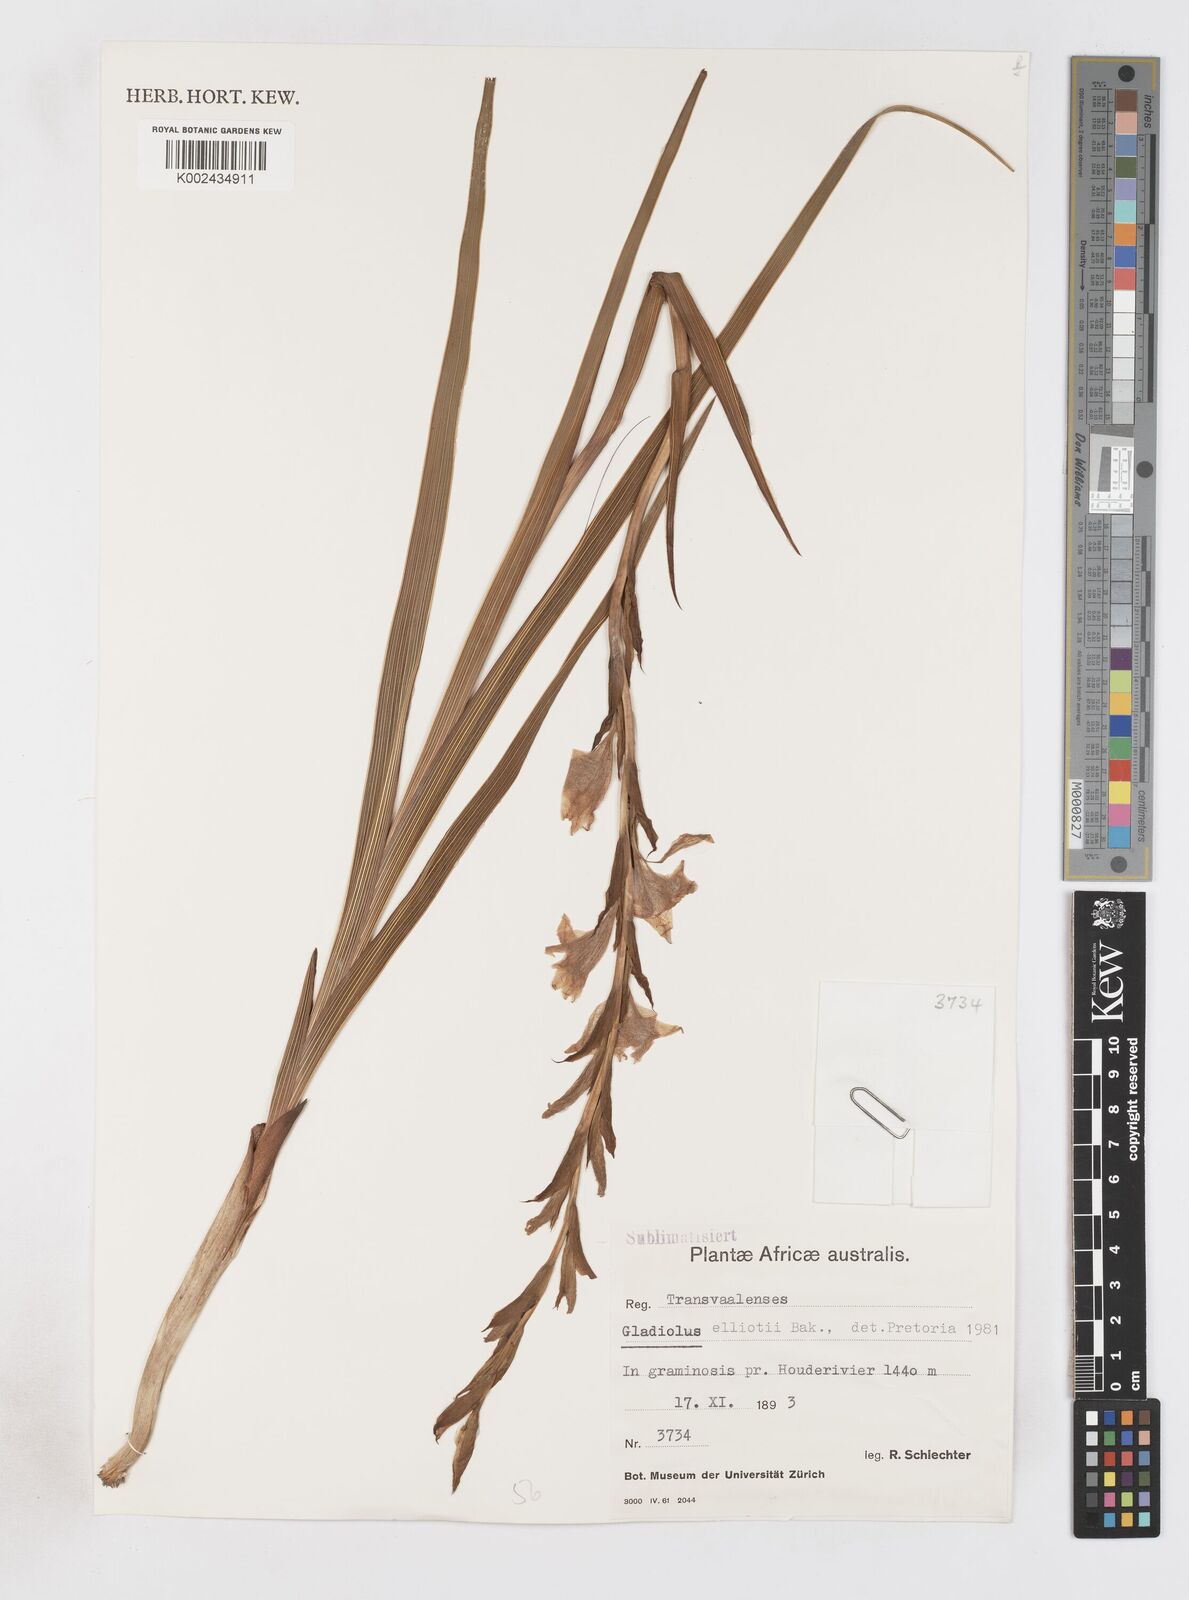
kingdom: Plantae
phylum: Tracheophyta
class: Liliopsida
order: Asparagales
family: Iridaceae
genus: Gladiolus
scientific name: Gladiolus elliotii
